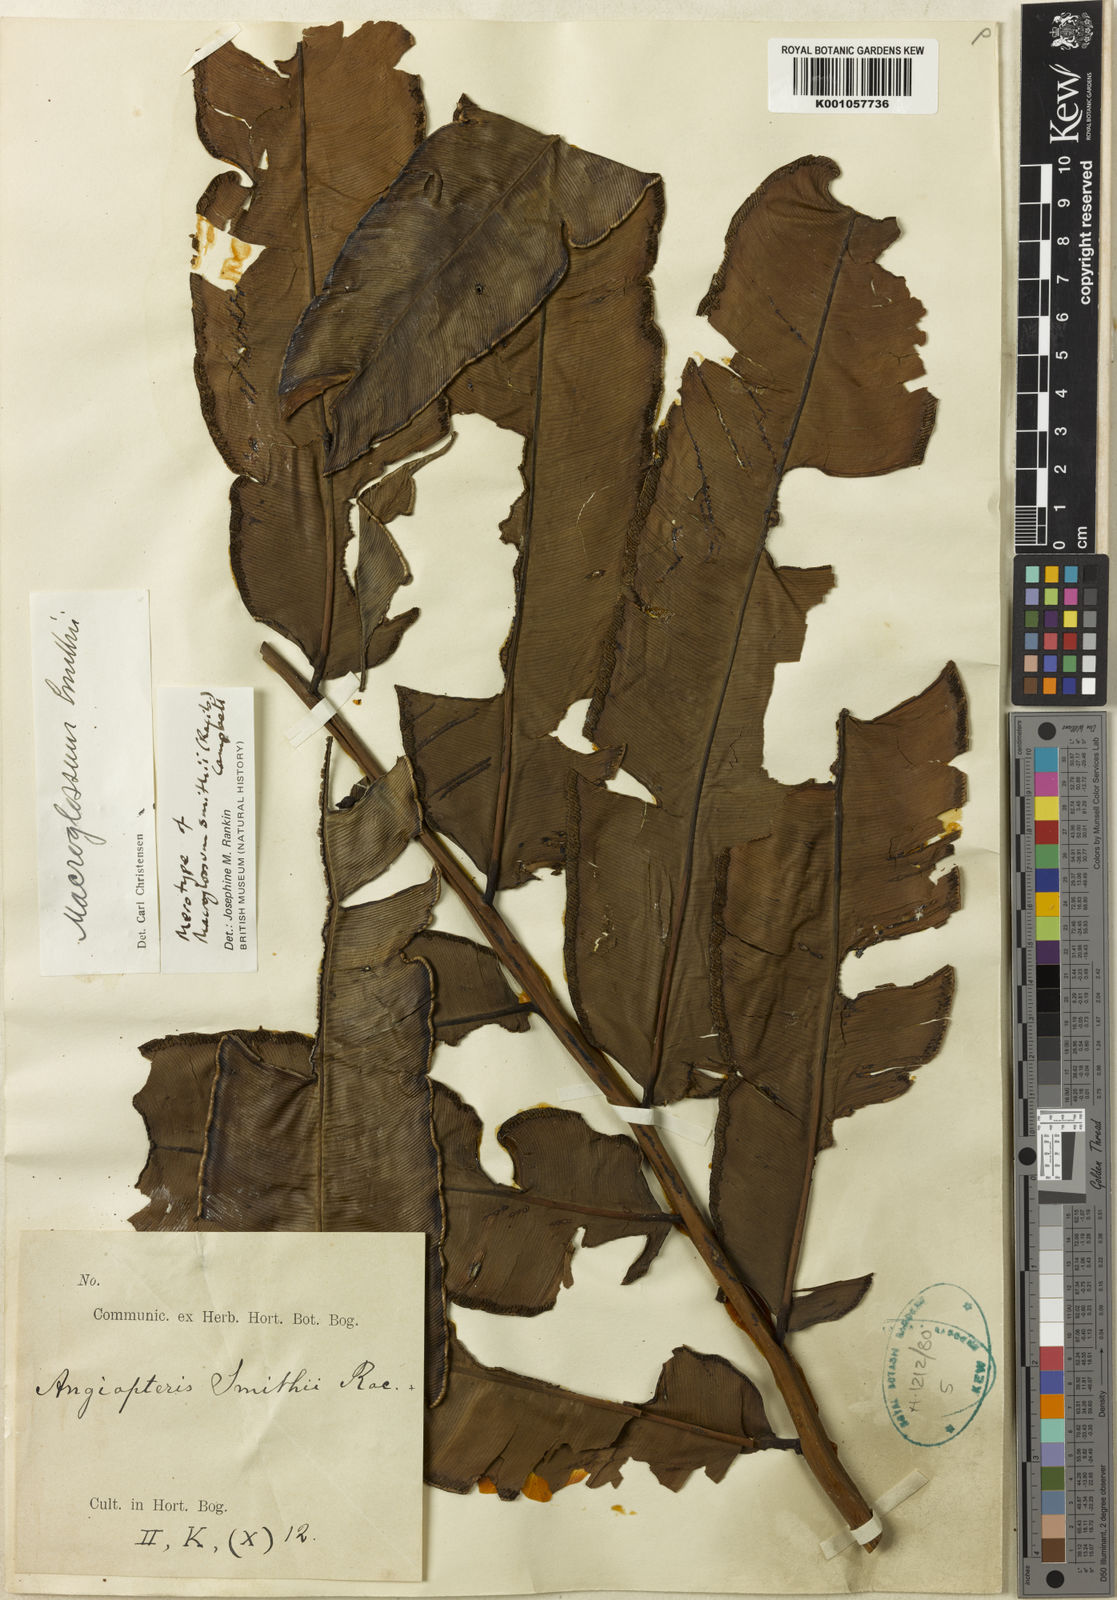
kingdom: Plantae
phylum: Tracheophyta
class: Polypodiopsida
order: Marattiales
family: Marattiaceae
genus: Angiopteris
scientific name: Angiopteris smithii
